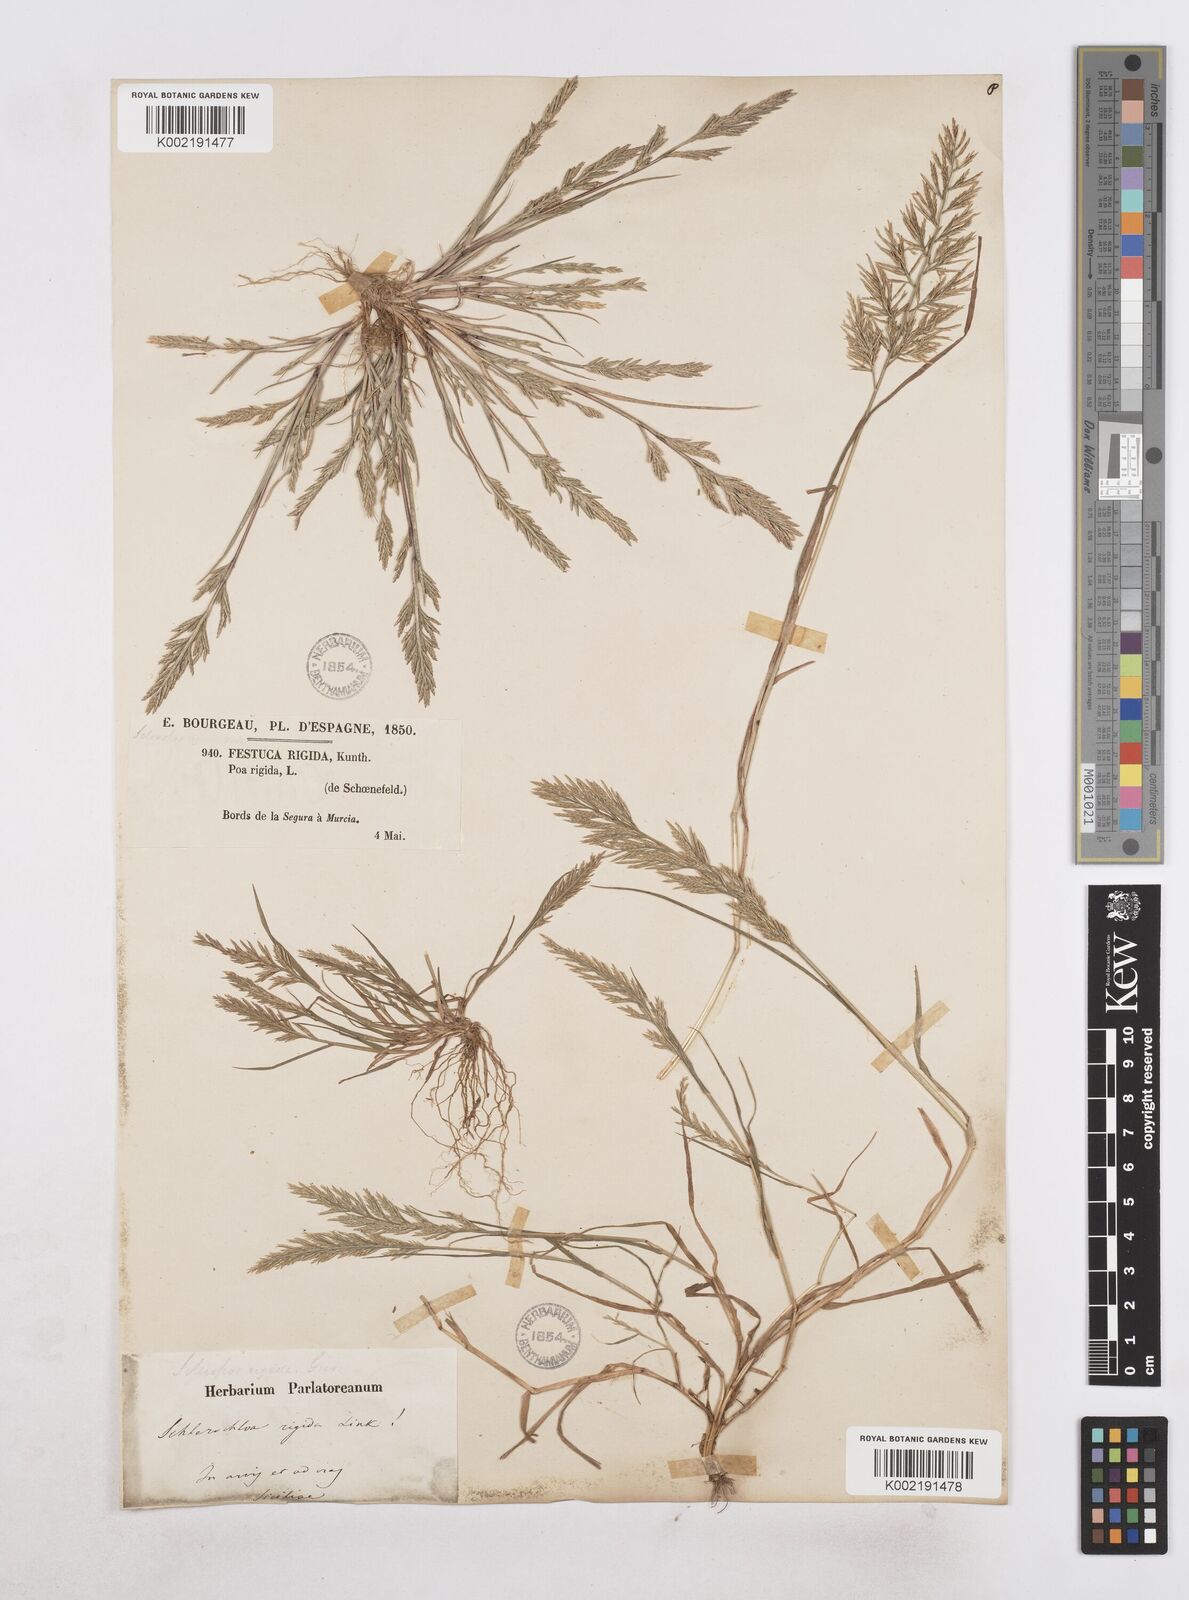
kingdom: Plantae
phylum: Tracheophyta
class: Liliopsida
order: Poales
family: Poaceae
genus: Catapodium
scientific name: Catapodium rigidum
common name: Fern-grass
